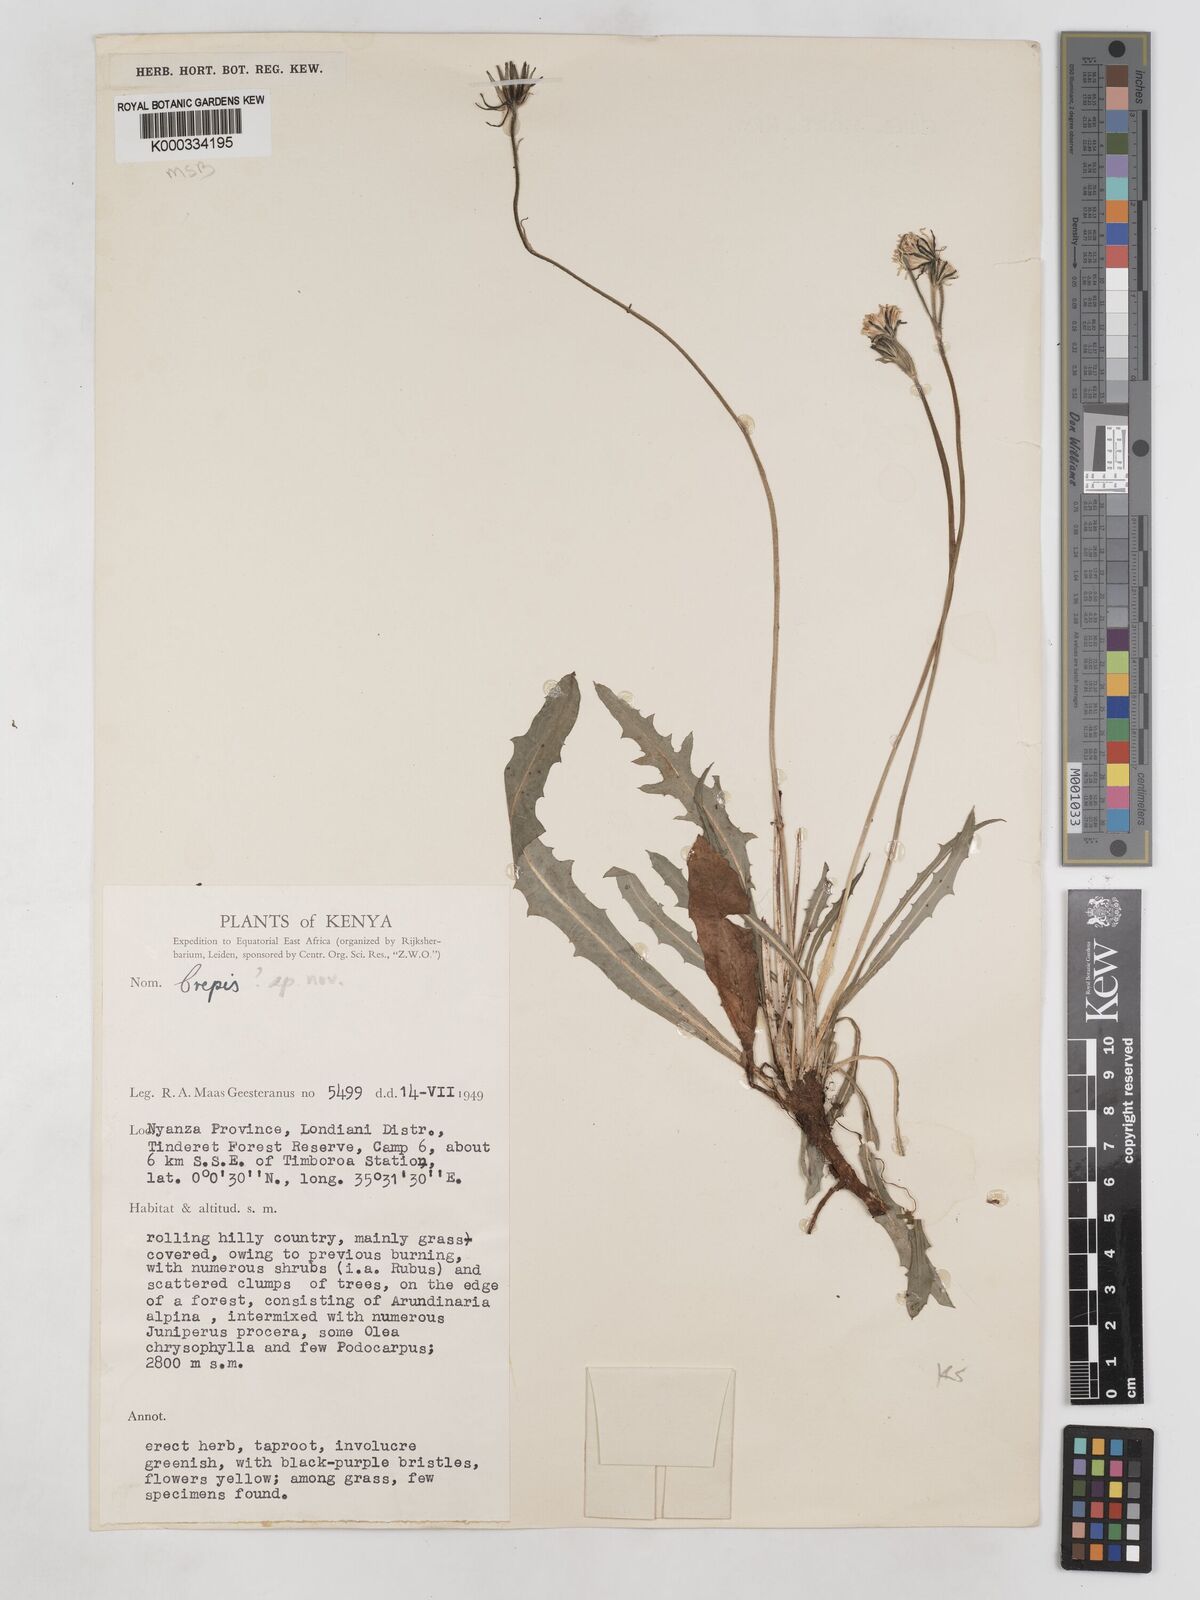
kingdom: Plantae
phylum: Tracheophyta
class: Magnoliopsida
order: Asterales
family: Asteraceae
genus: Crepis
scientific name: Crepis carbonaria
